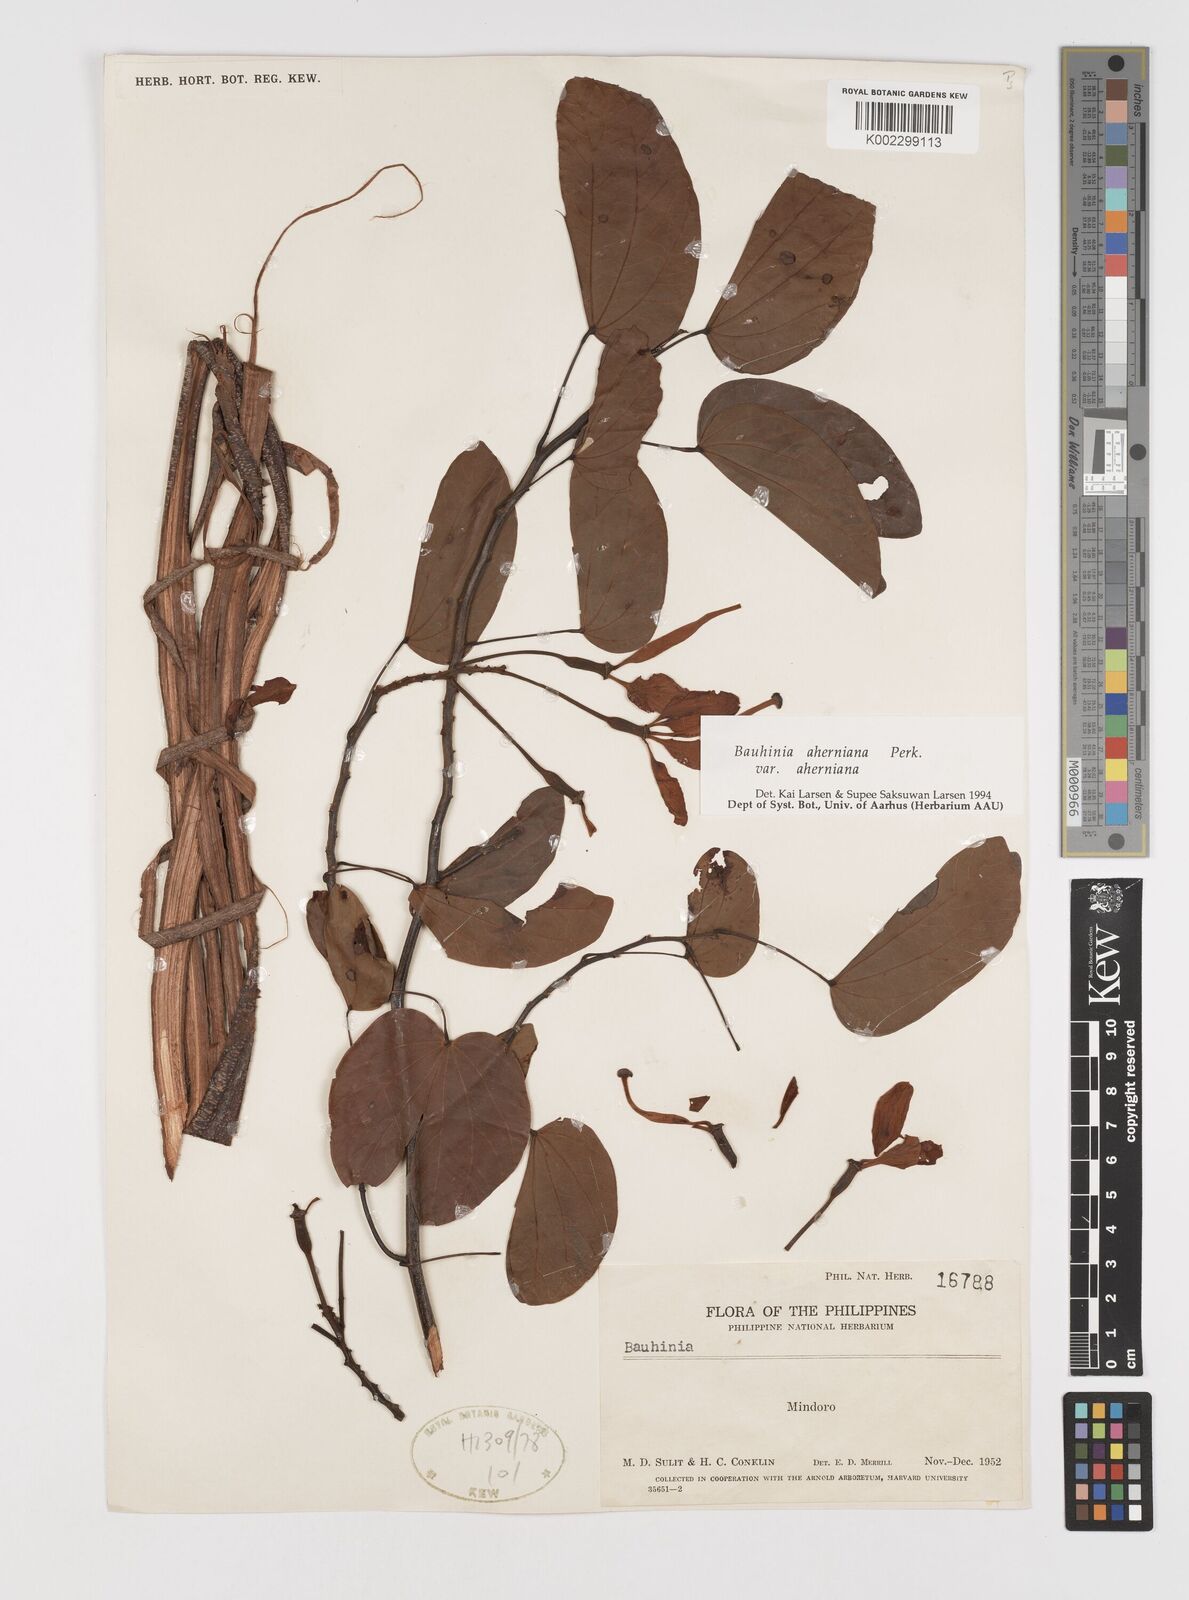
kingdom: Plantae
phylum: Tracheophyta
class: Magnoliopsida
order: Fabales
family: Fabaceae
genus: Phanera
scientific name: Phanera aherniana
